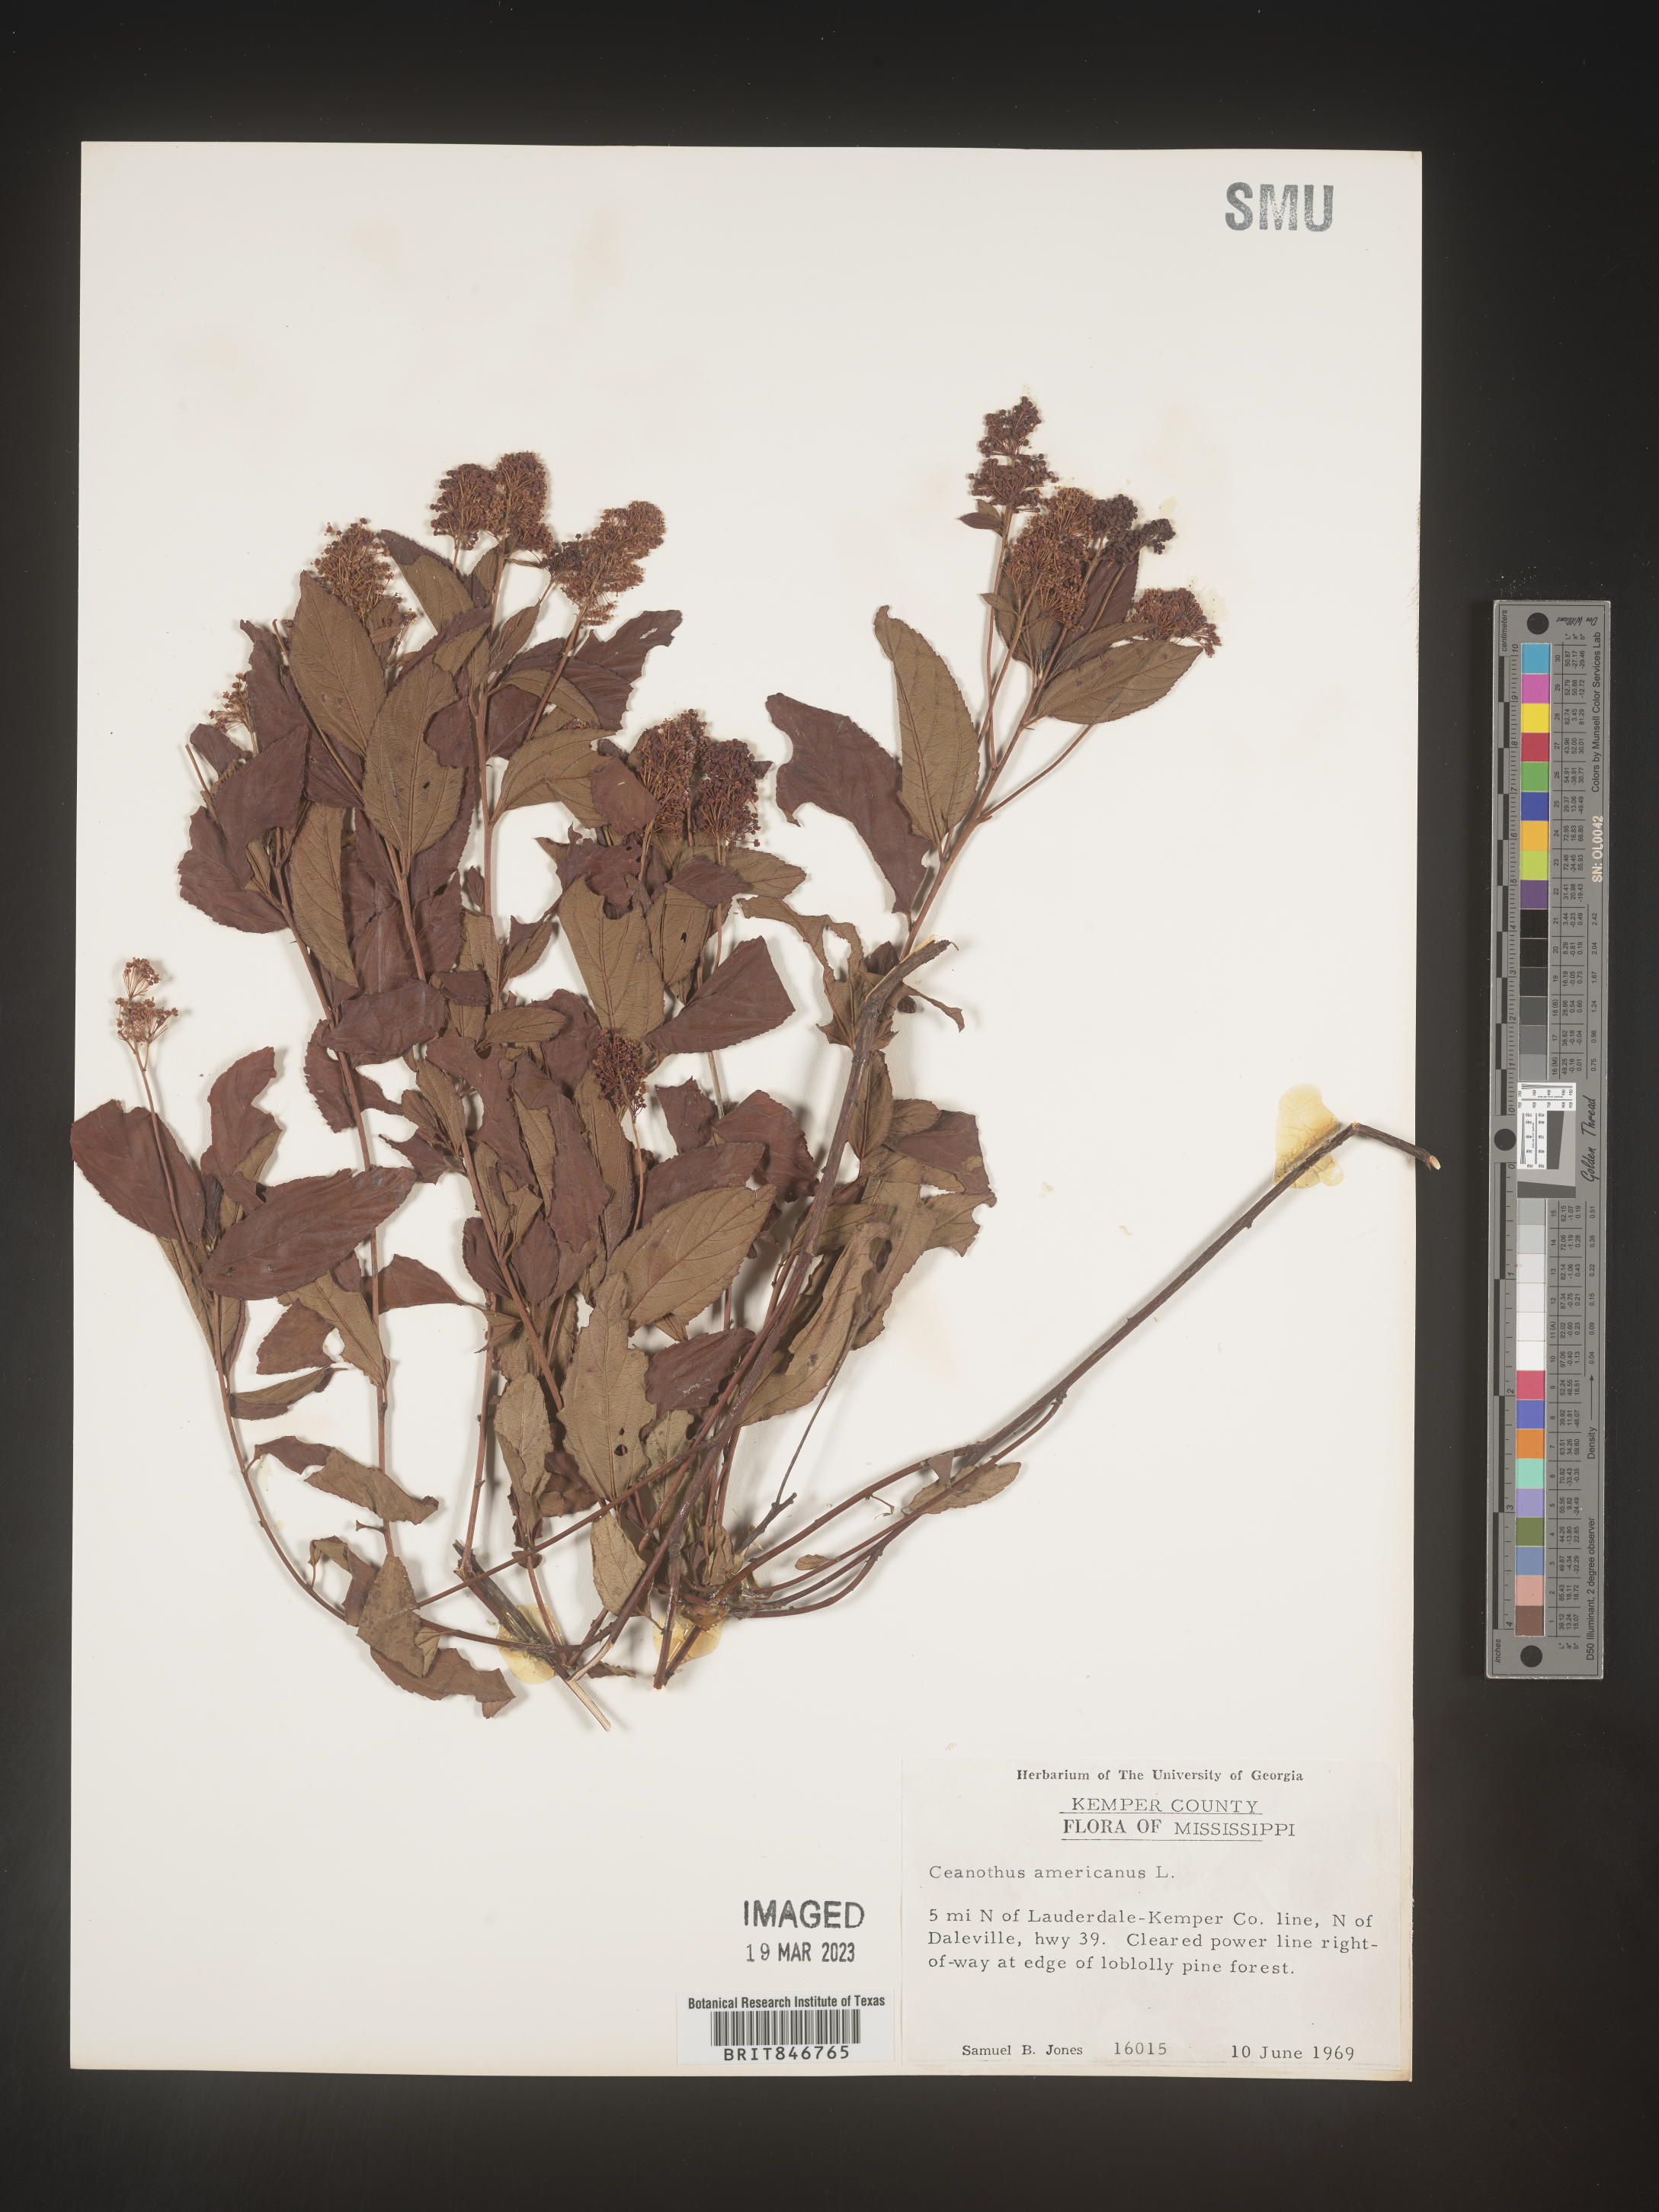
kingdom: Plantae
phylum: Tracheophyta
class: Magnoliopsida
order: Rosales
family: Rhamnaceae
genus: Ceanothus
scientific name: Ceanothus americanus
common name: Redroot
